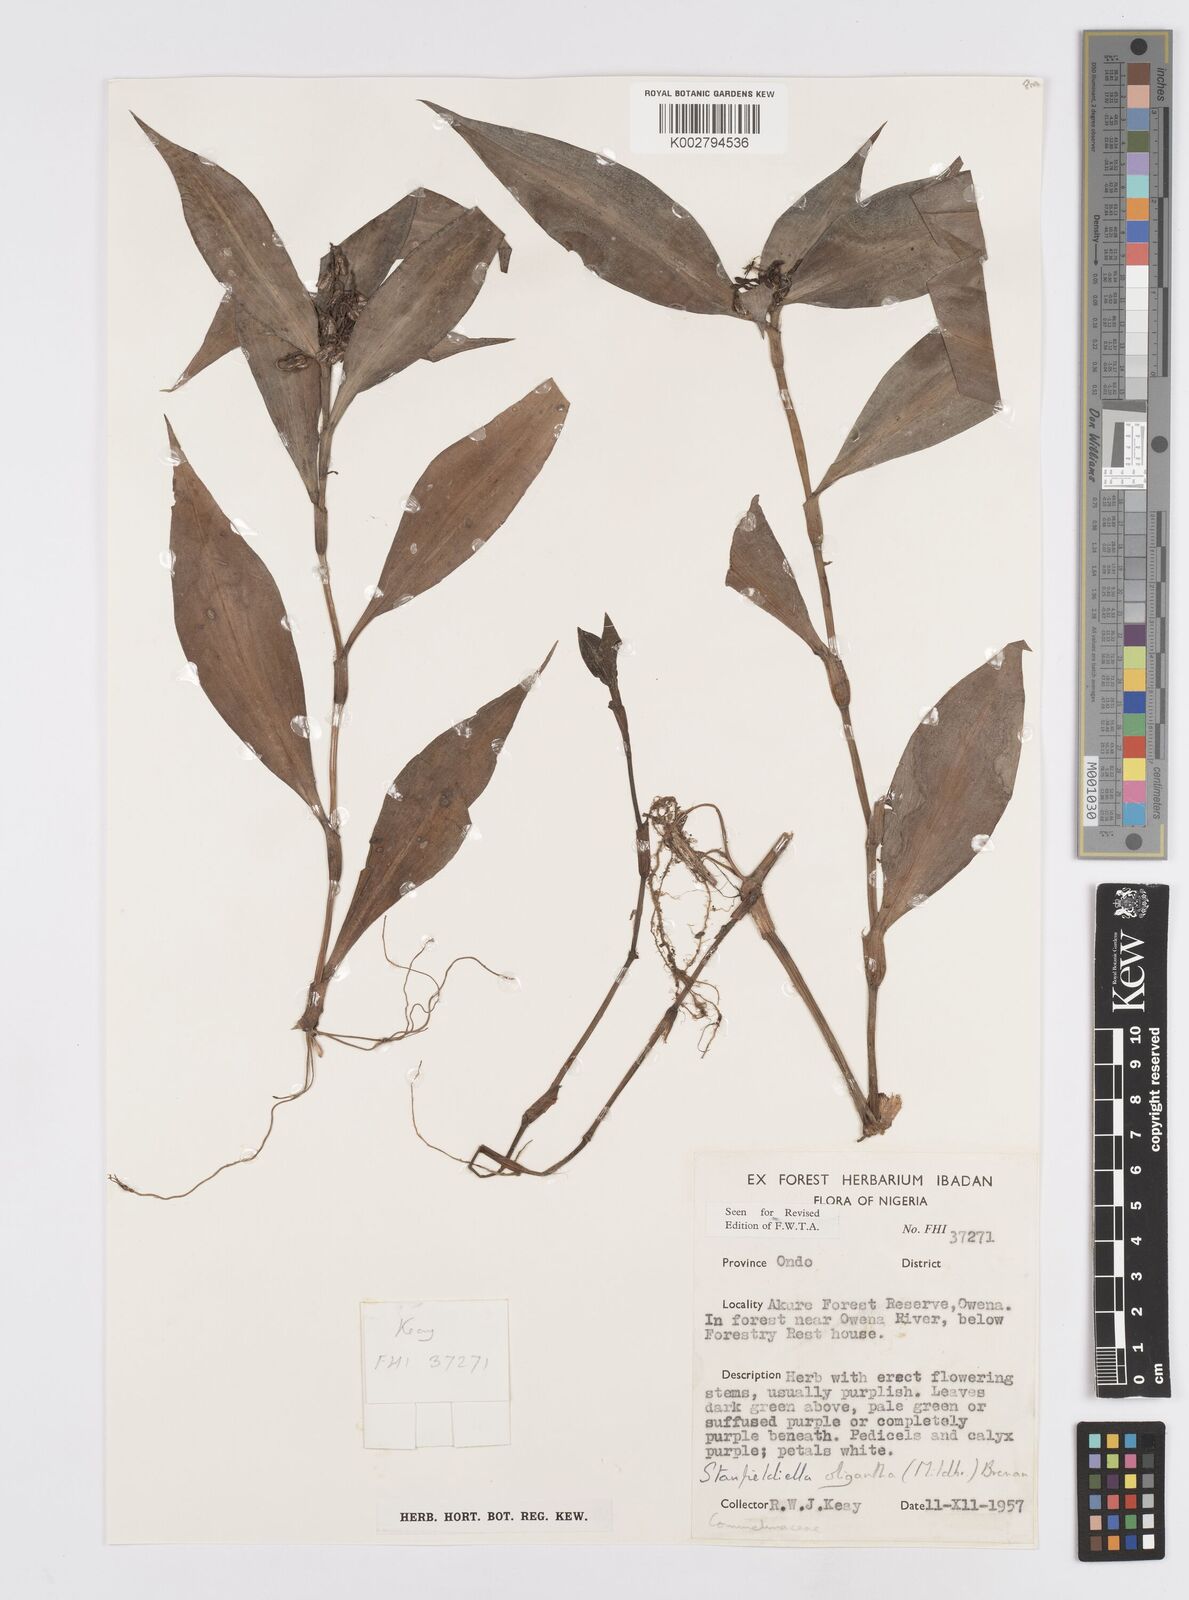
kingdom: Plantae
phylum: Tracheophyta
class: Liliopsida
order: Commelinales
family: Commelinaceae
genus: Stanfieldiella
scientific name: Stanfieldiella oligantha
